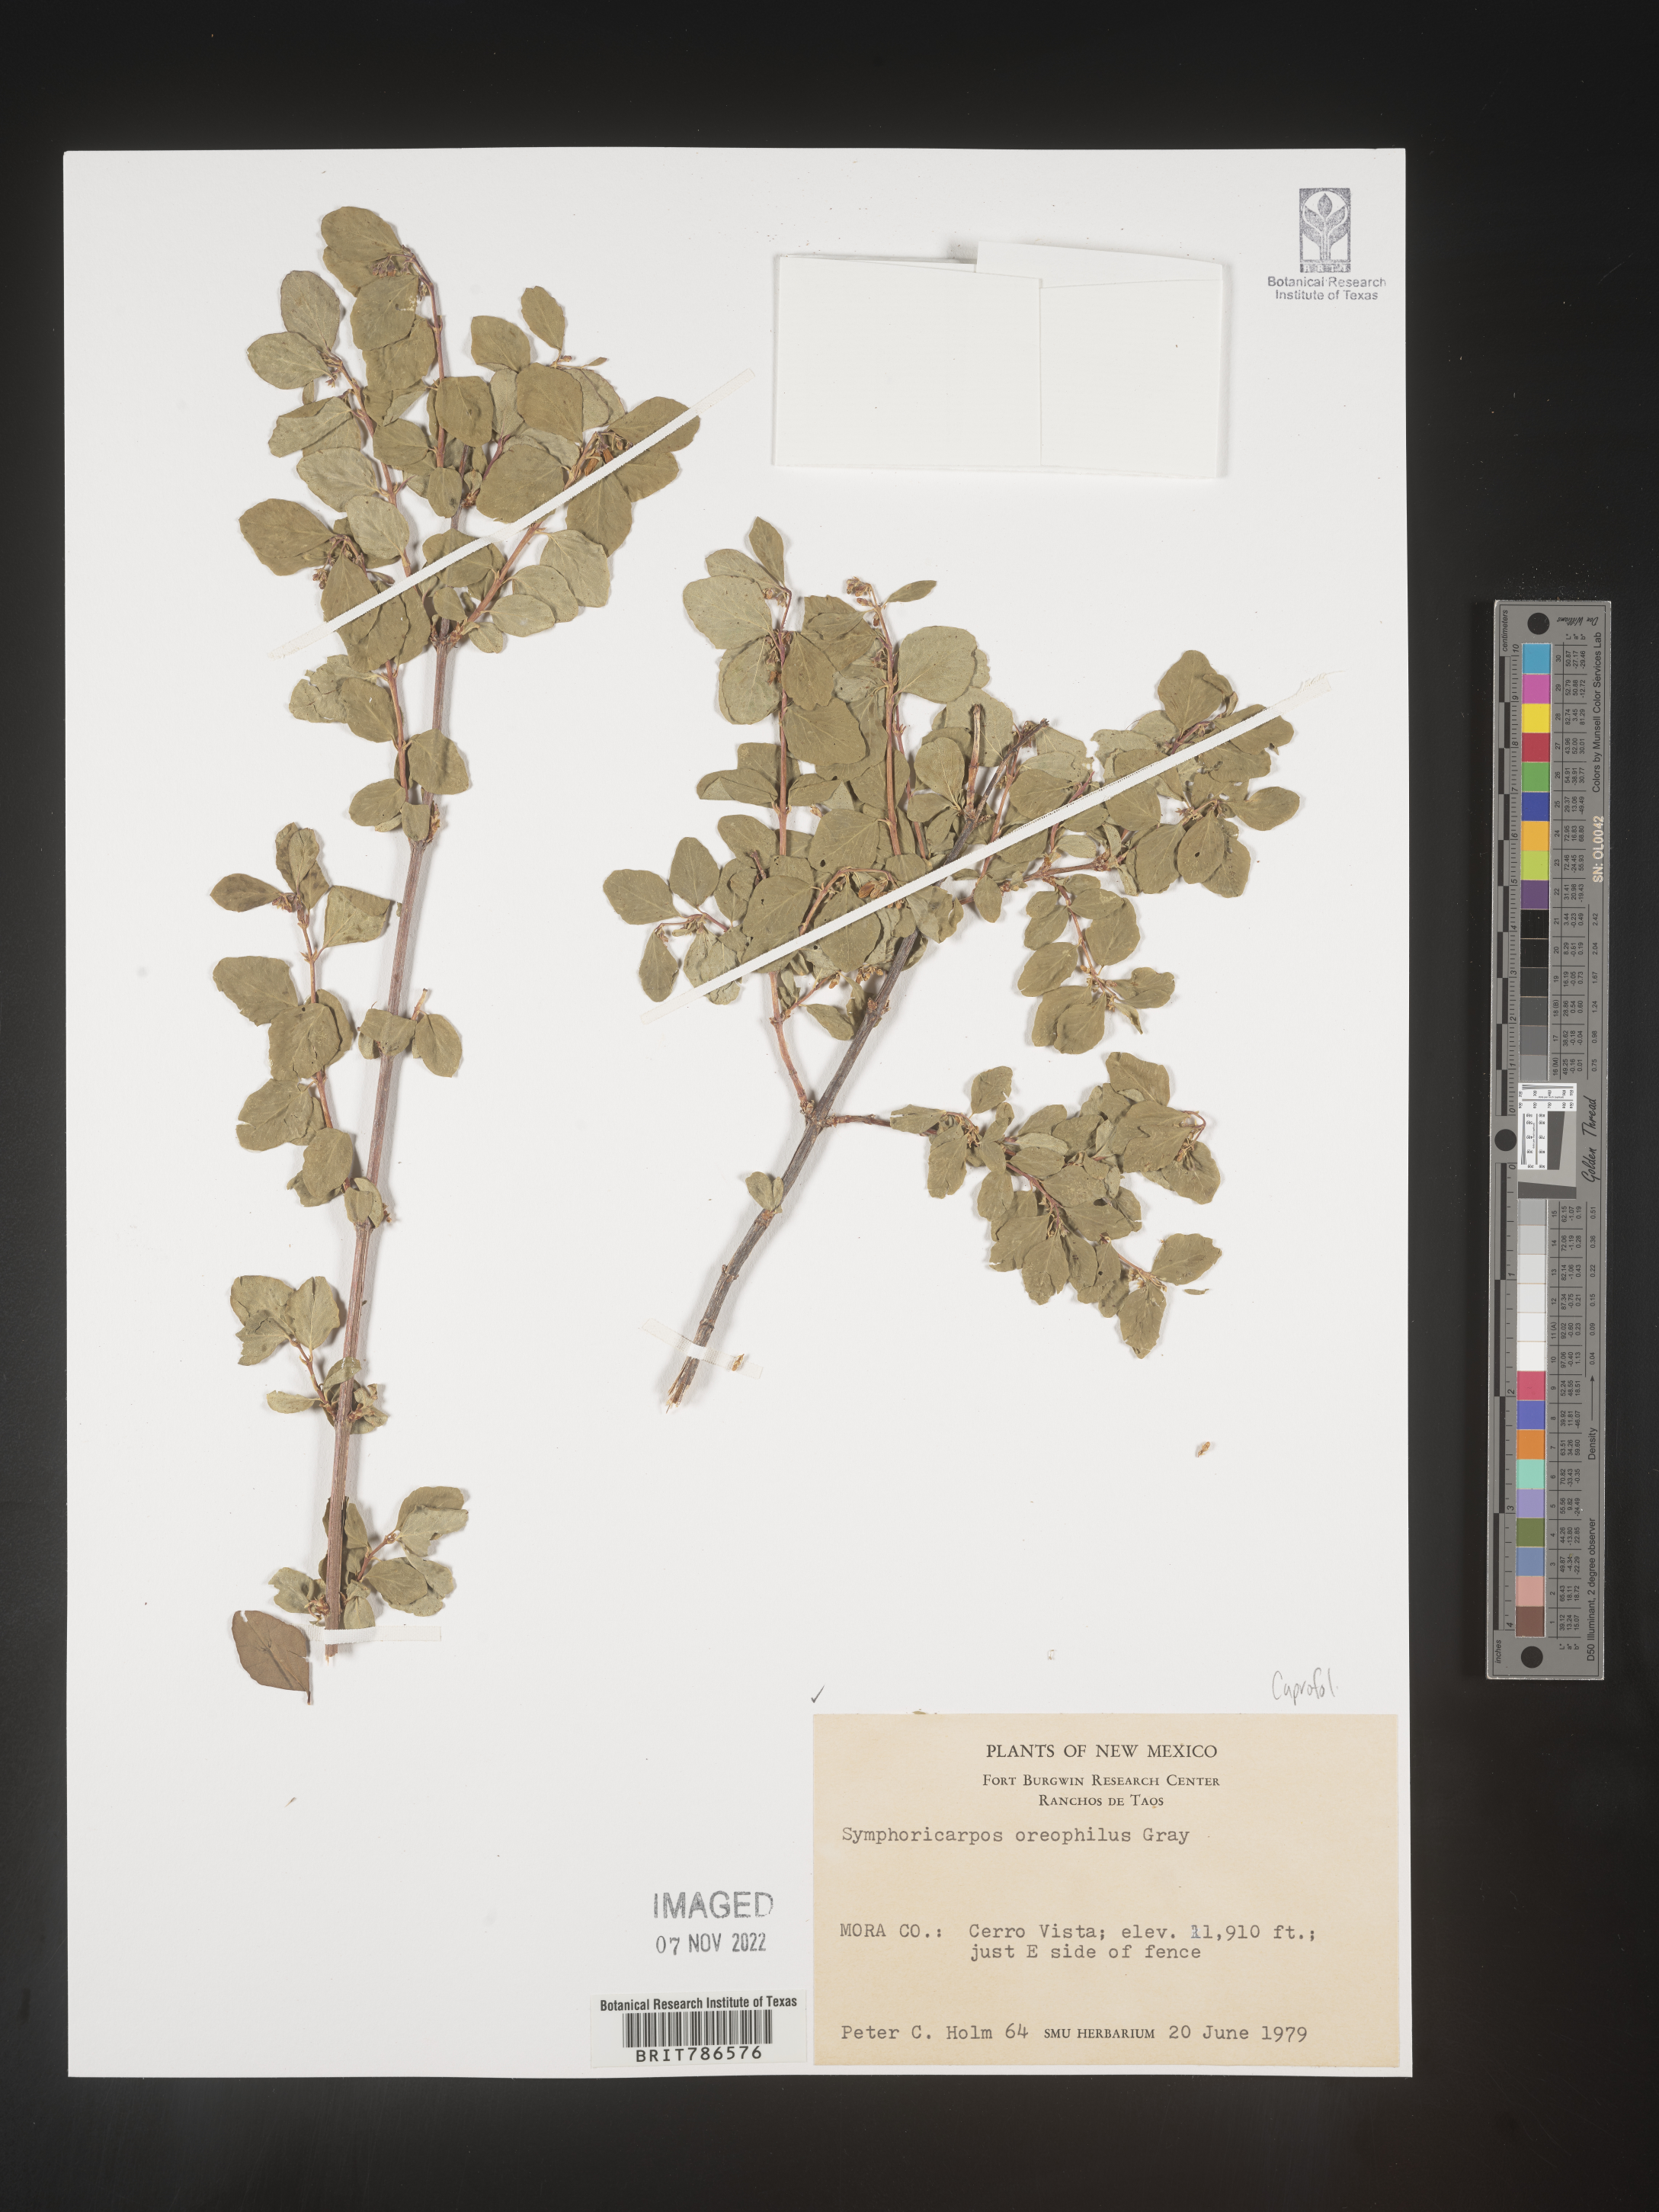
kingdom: Plantae
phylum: Tracheophyta
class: Magnoliopsida
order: Dipsacales
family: Caprifoliaceae
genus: Symphoricarpos
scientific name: Symphoricarpos oreophilus
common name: Mountain snowberry
